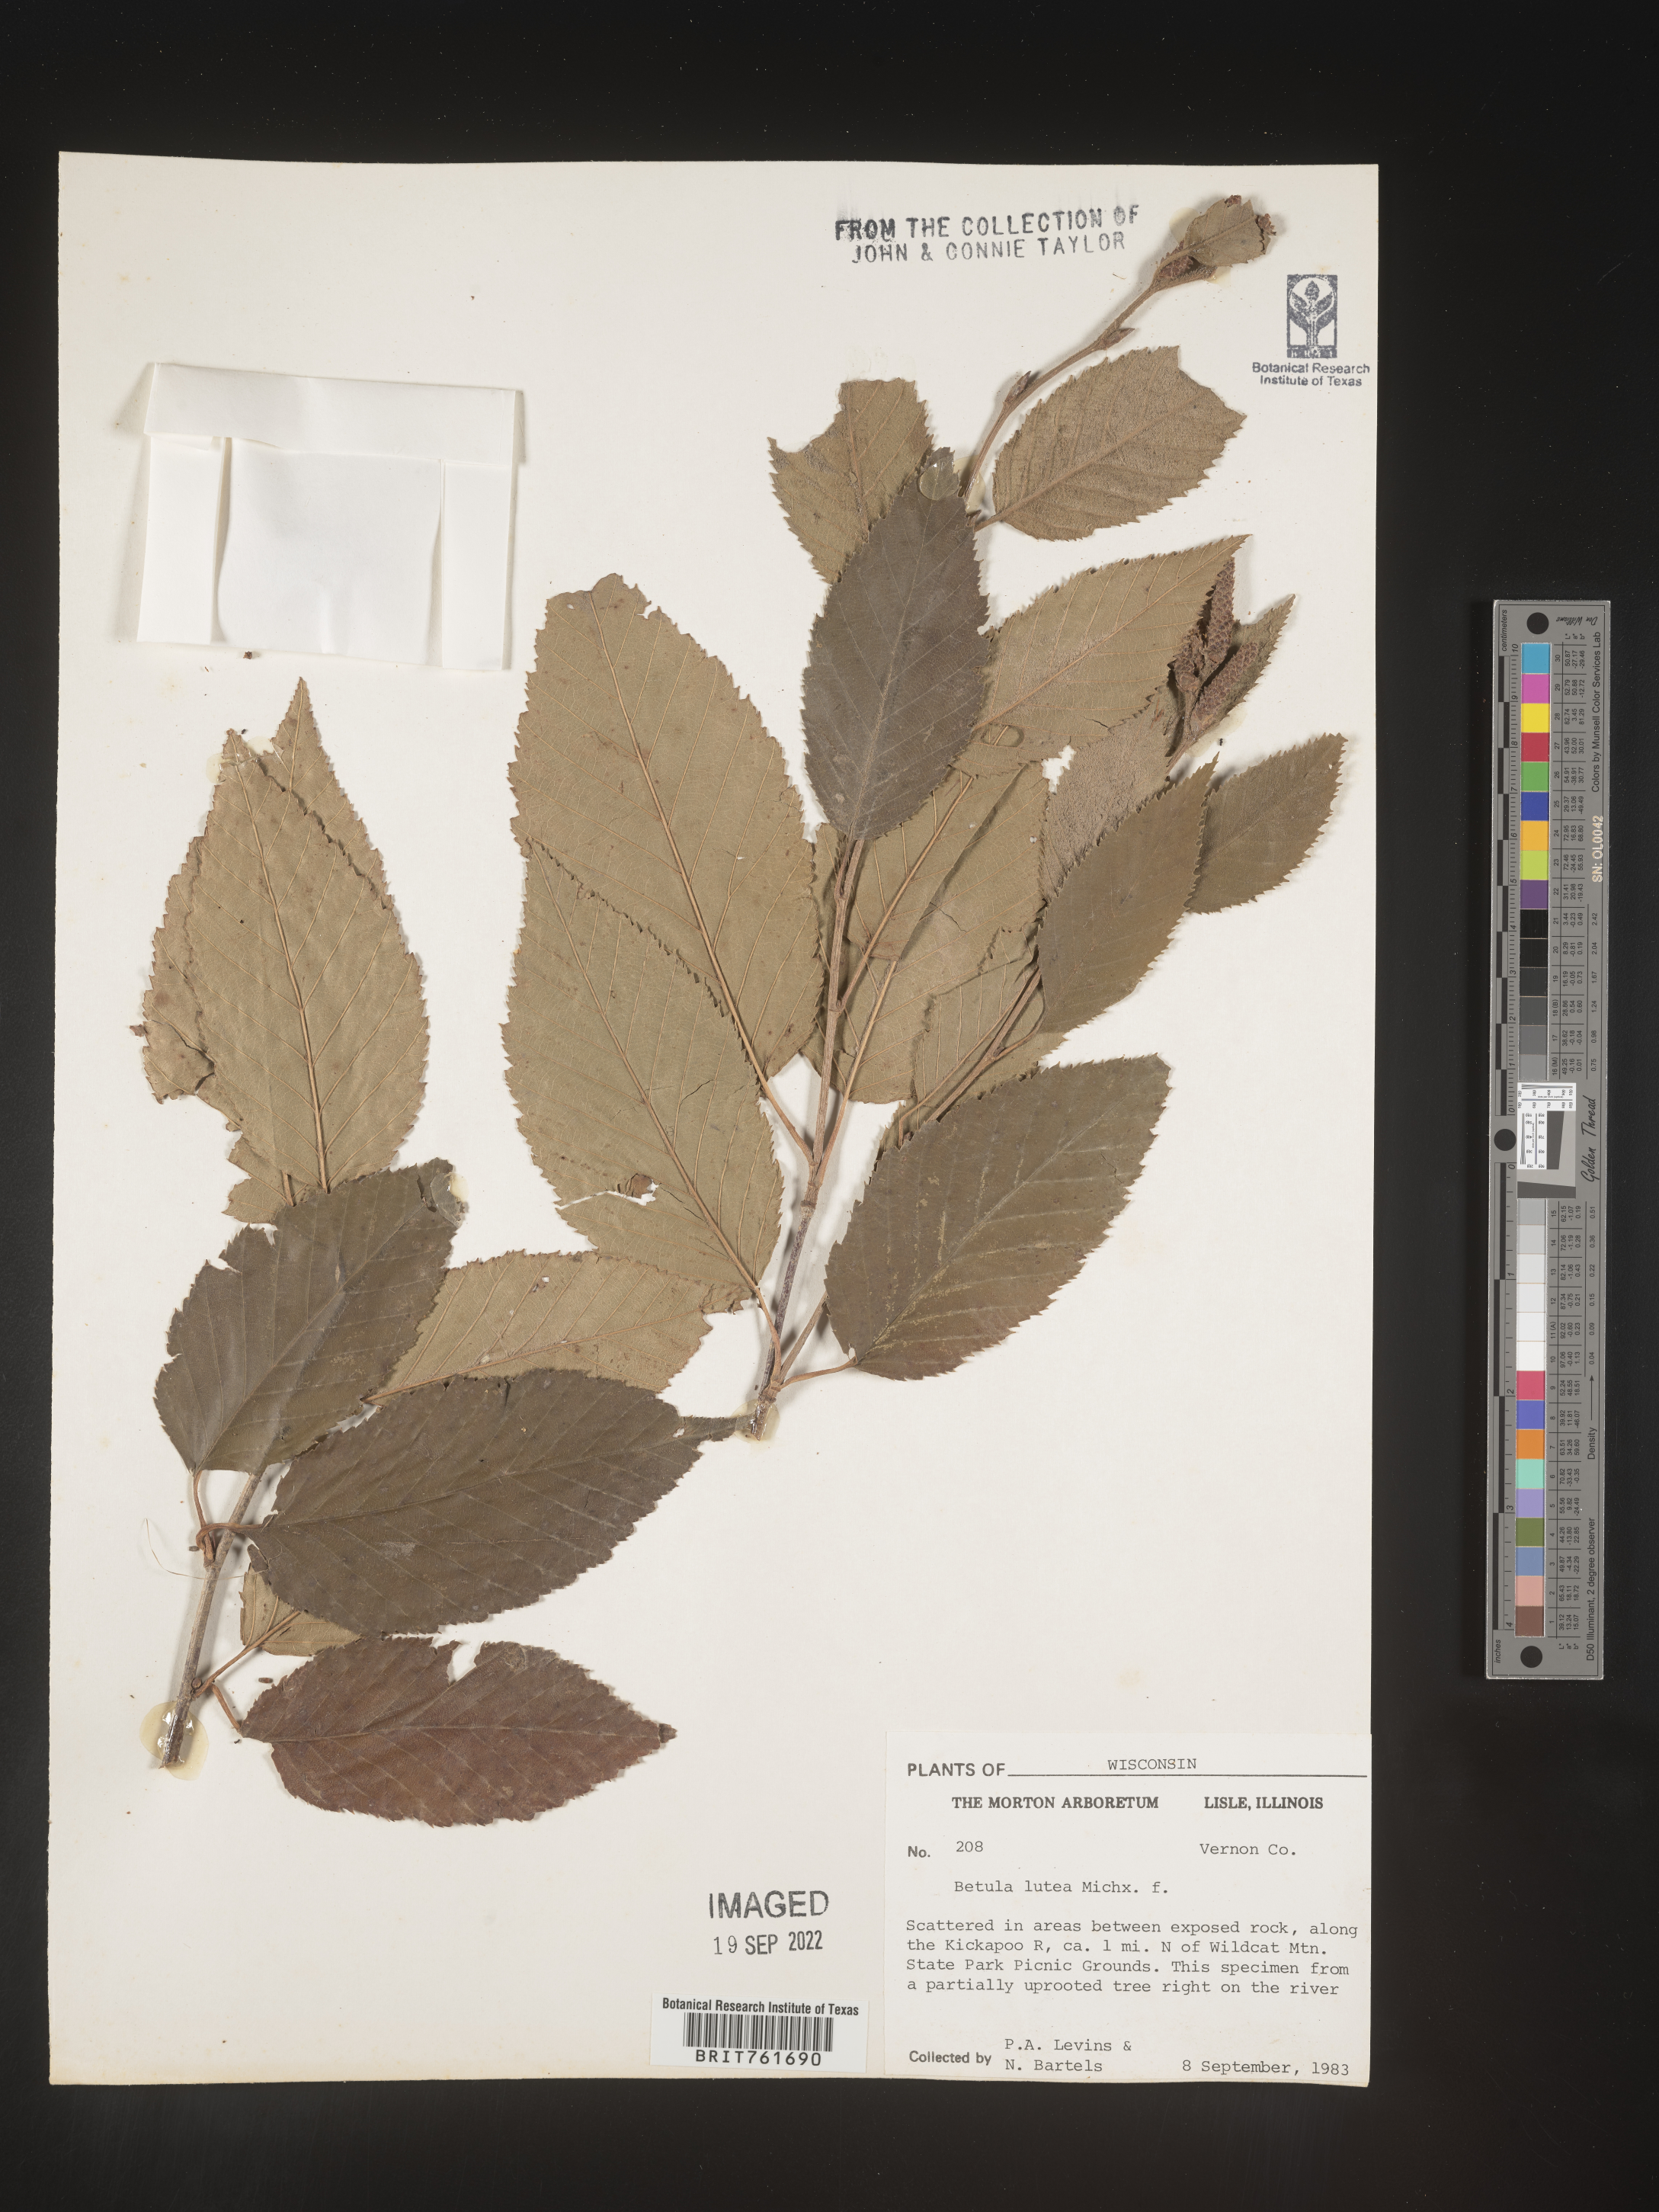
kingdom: Plantae
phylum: Tracheophyta
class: Magnoliopsida
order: Fagales
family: Betulaceae
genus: Betula
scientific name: Betula alleghaniensis
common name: Yellow birch
